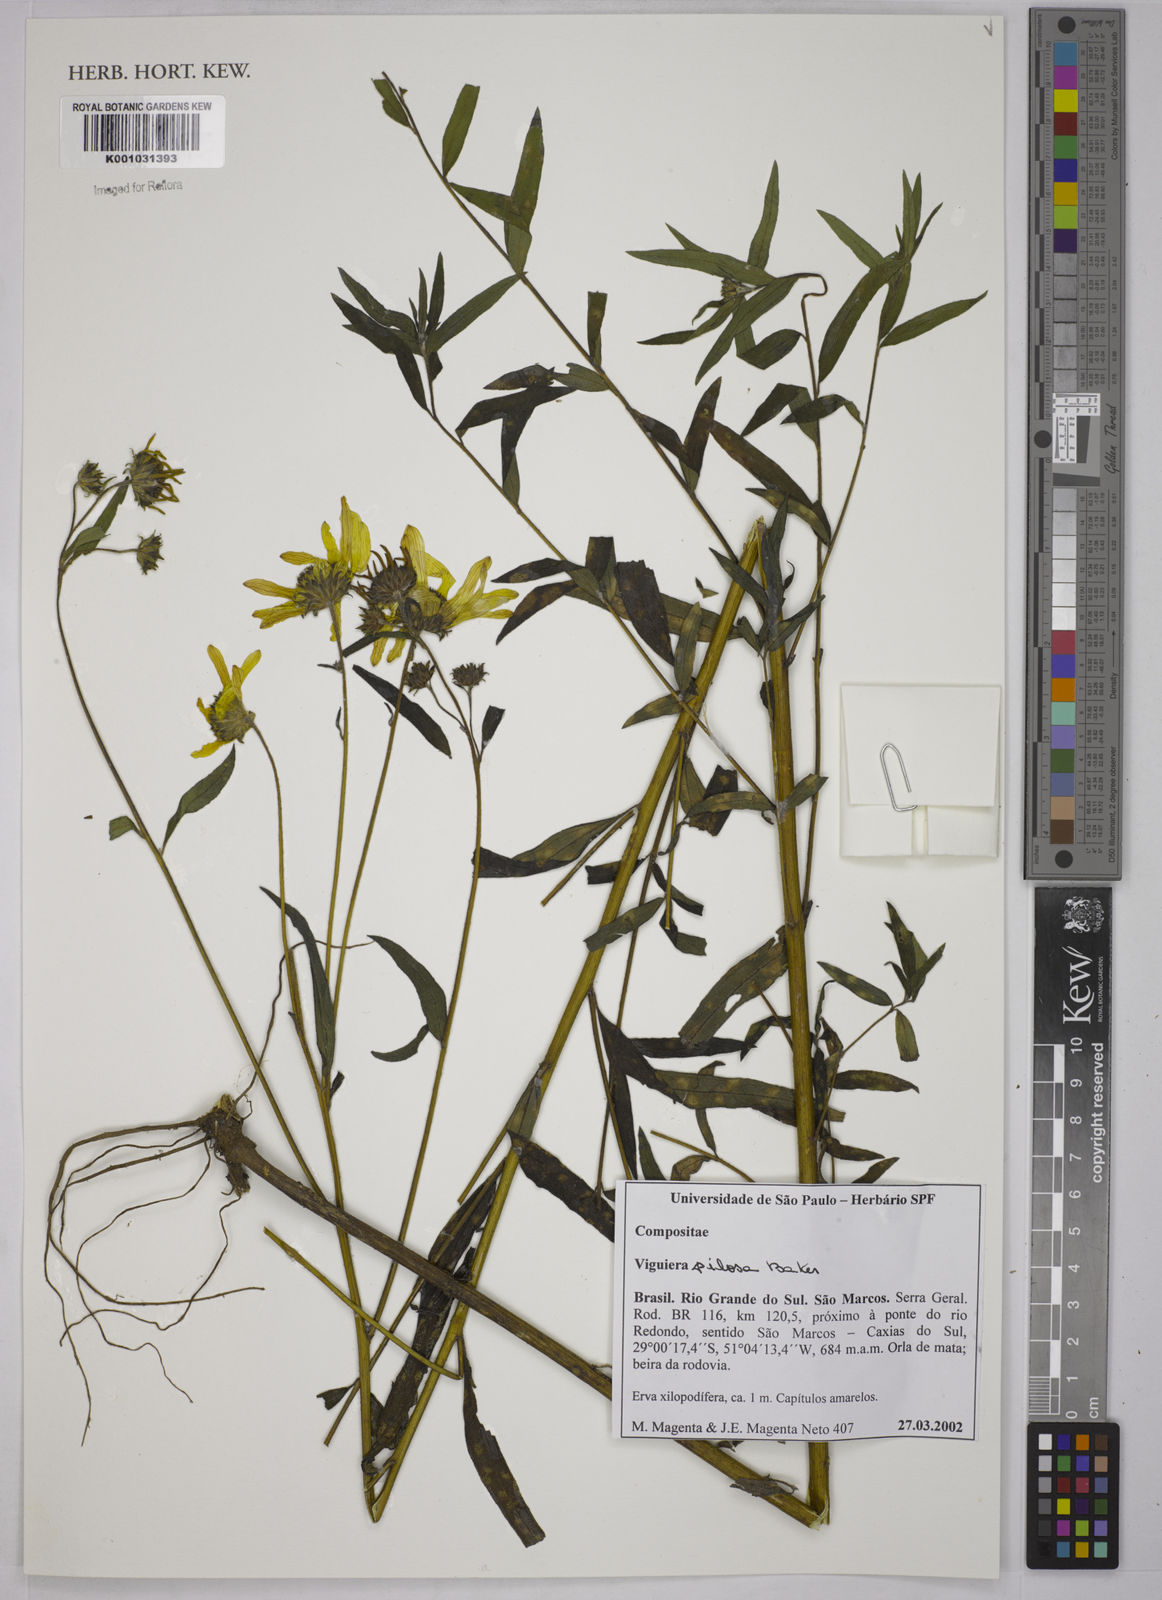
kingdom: Plantae
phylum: Tracheophyta
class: Magnoliopsida
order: Asterales
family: Asteraceae
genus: Aldama
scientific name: Aldama pilosa
